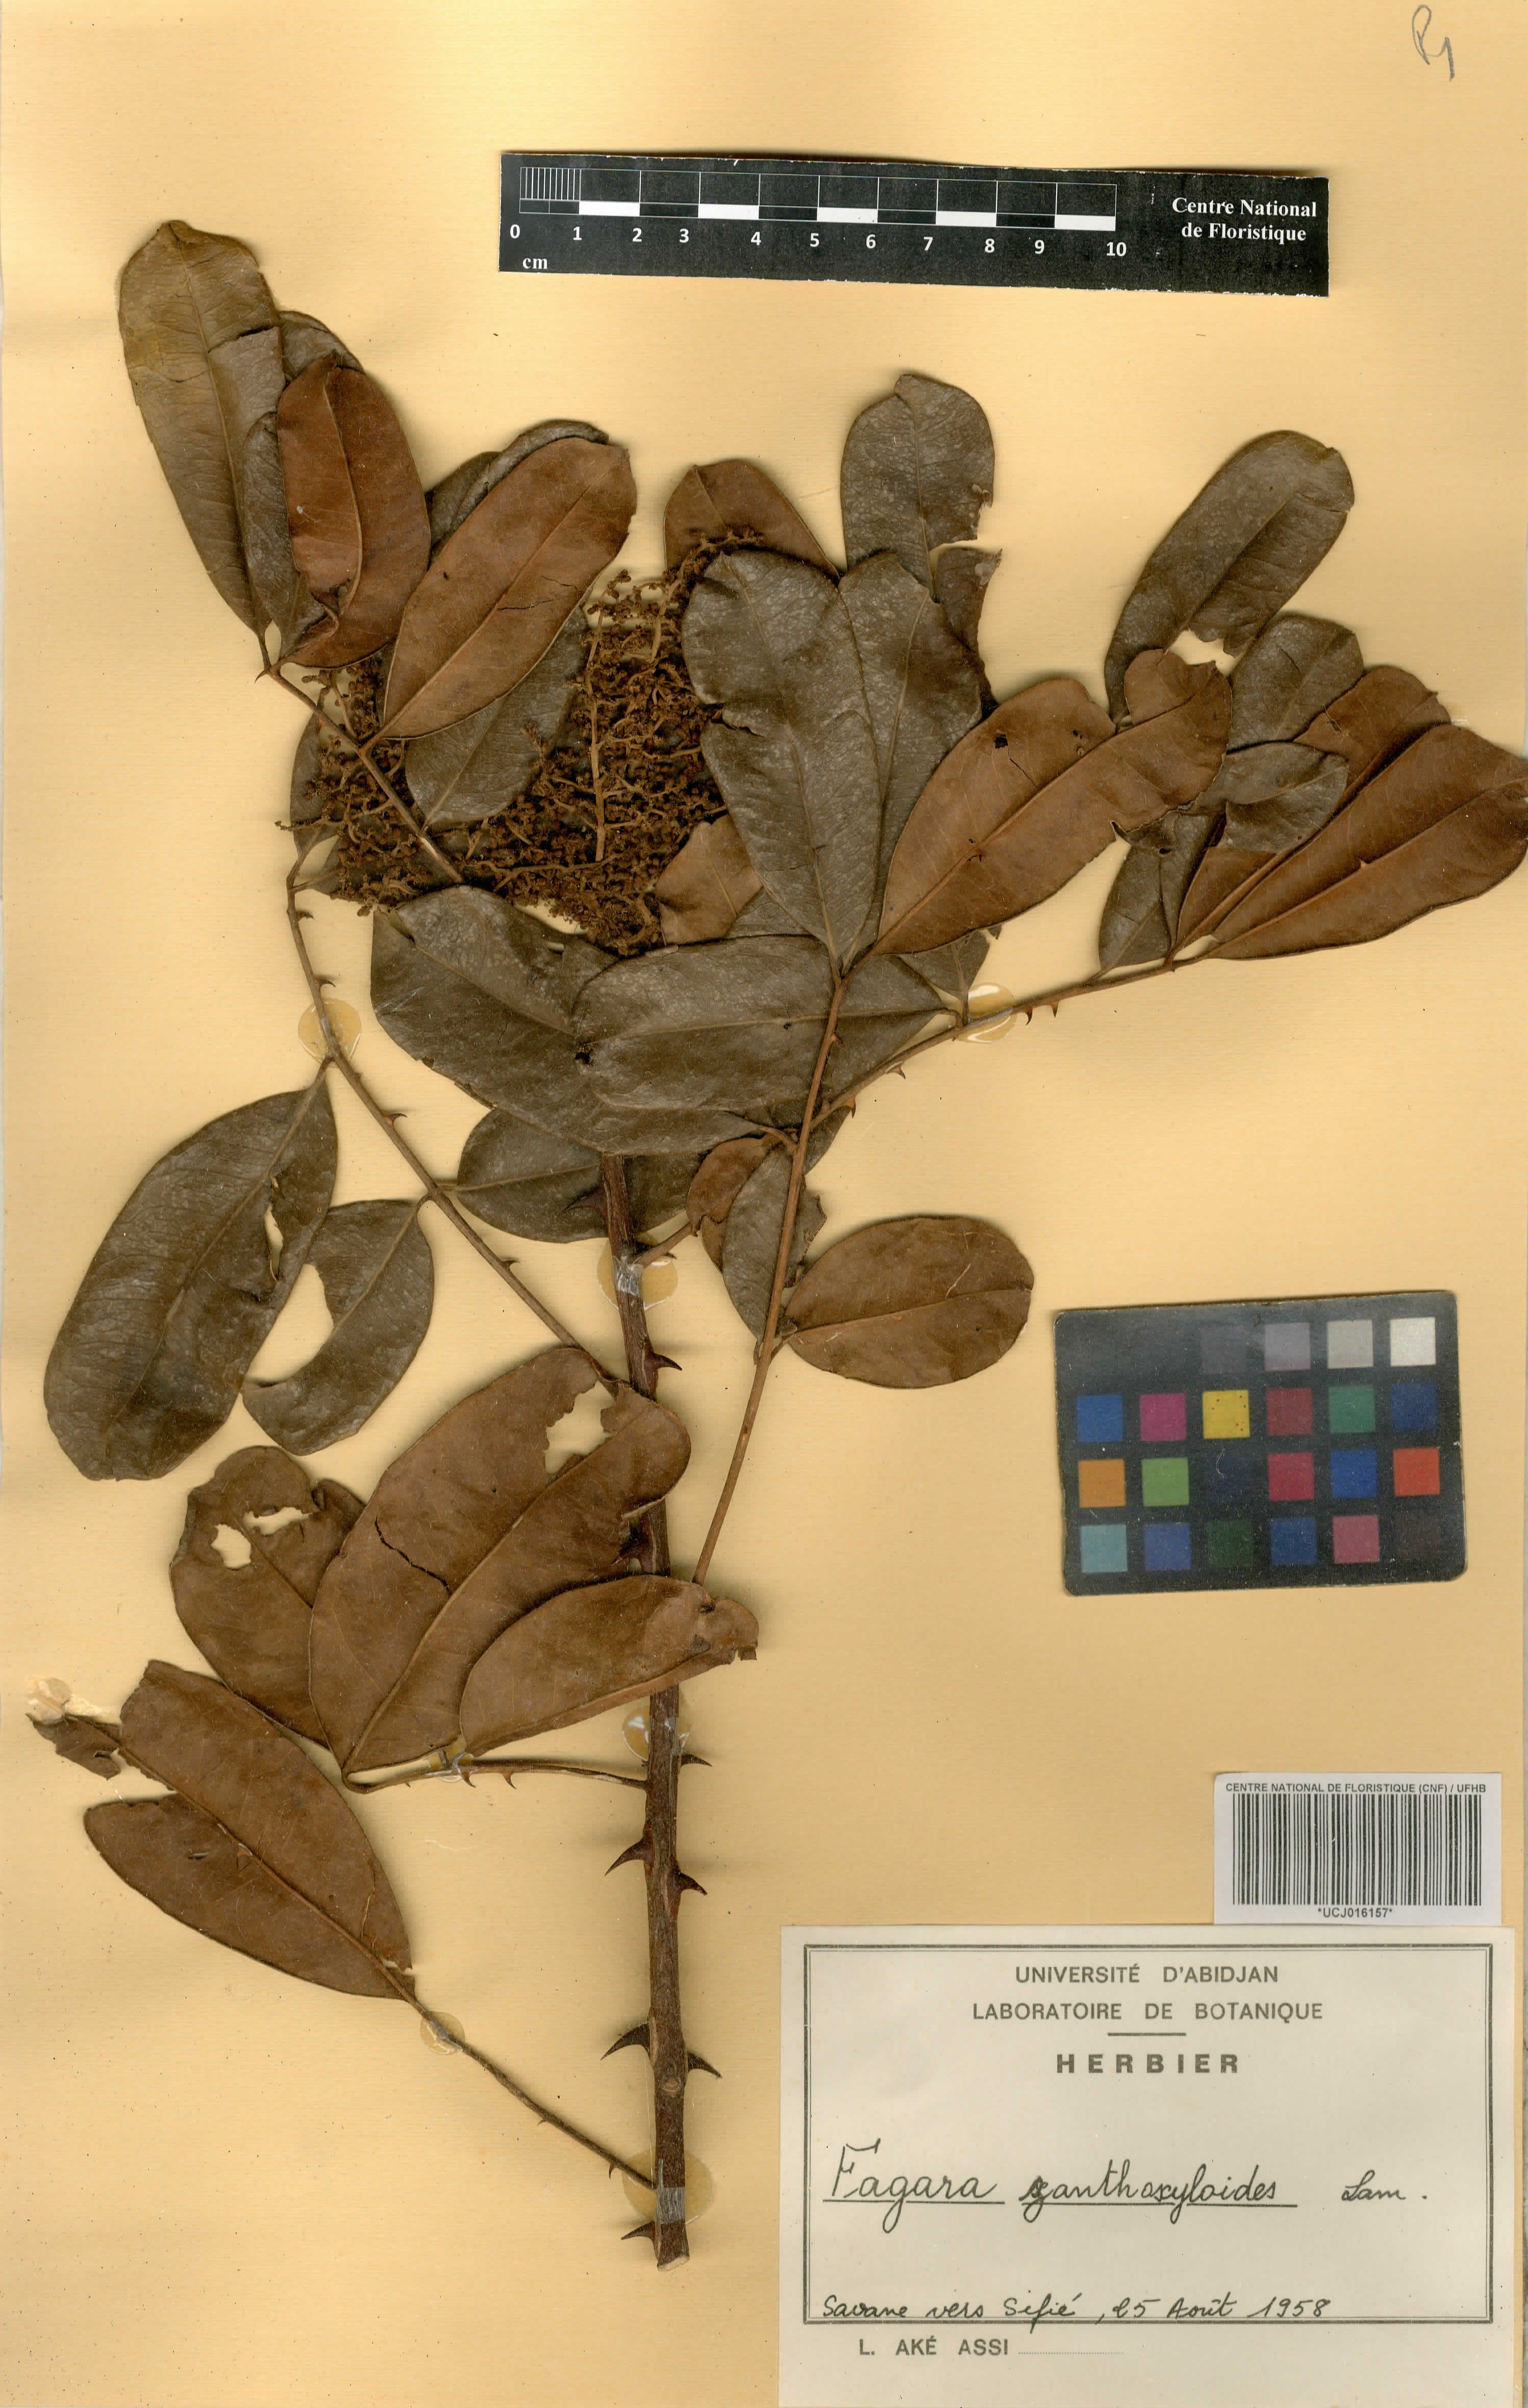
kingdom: Plantae
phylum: Tracheophyta
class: Magnoliopsida
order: Sapindales
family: Rutaceae
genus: Zanthoxylum
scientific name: Zanthoxylum zanthoxyloides
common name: Senegal prickly-ash
